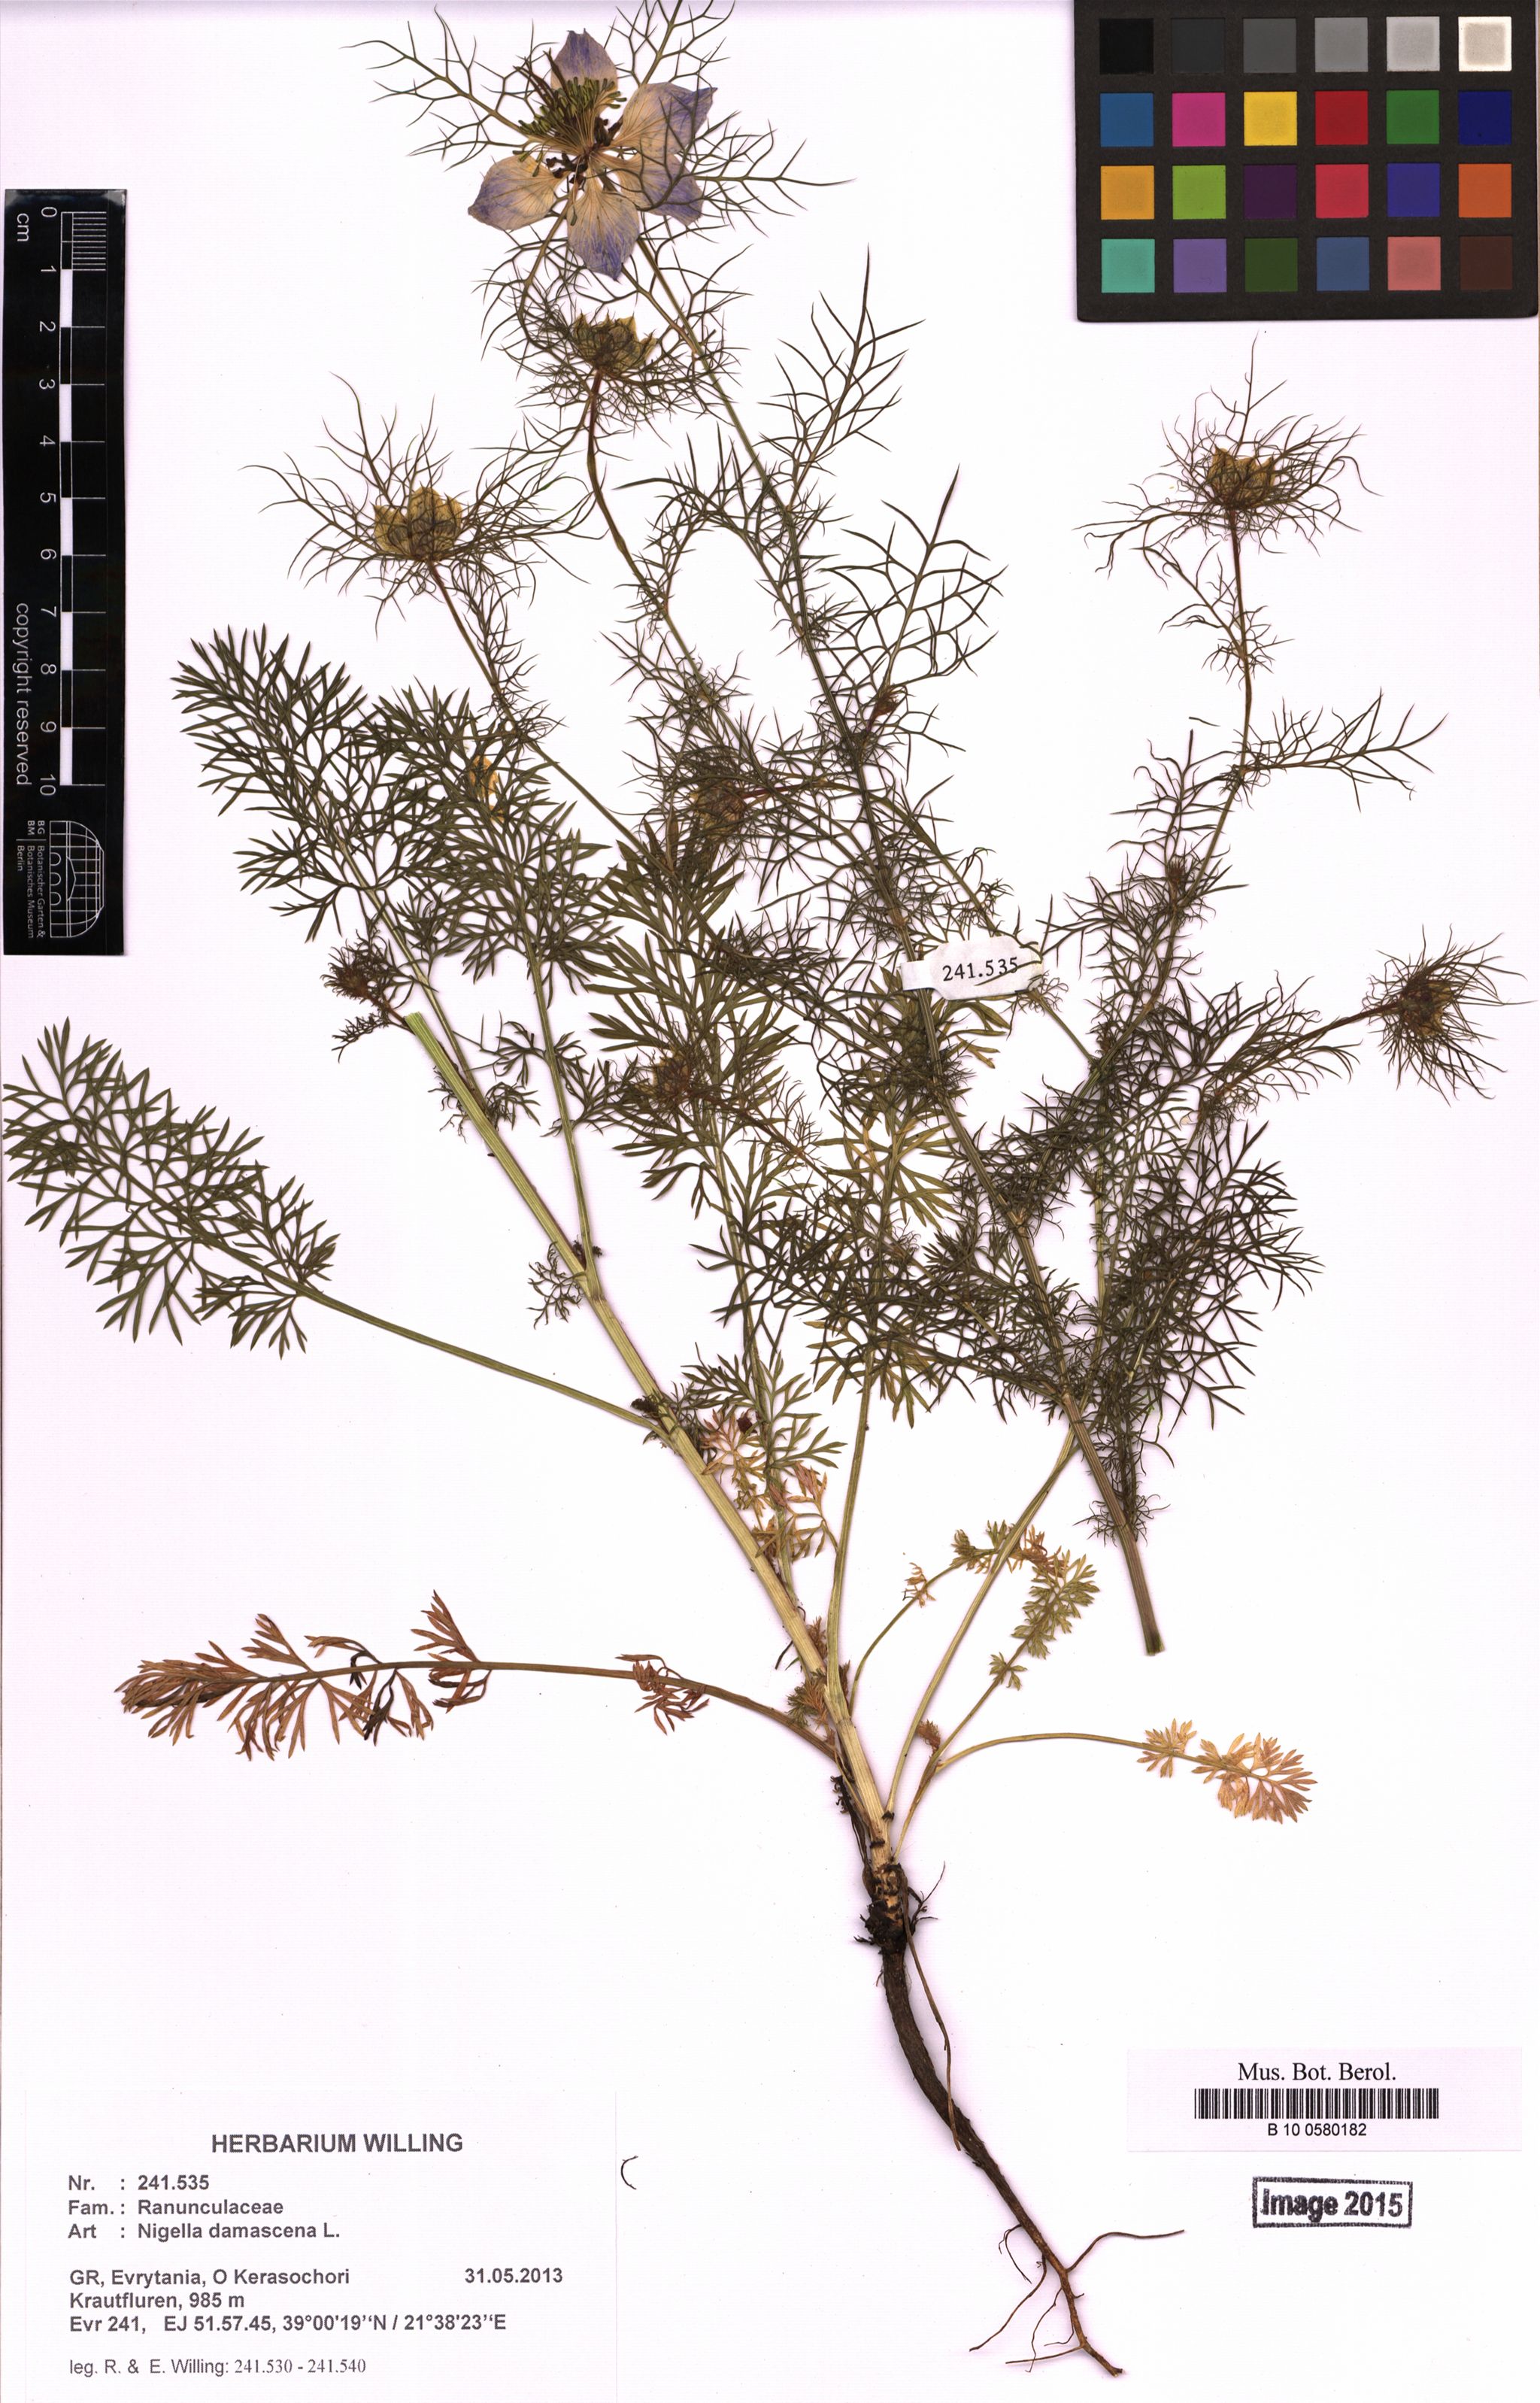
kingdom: Plantae
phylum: Tracheophyta
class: Magnoliopsida
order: Ranunculales
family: Ranunculaceae
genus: Nigella
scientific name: Nigella damascena
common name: Love-in-a-mist
